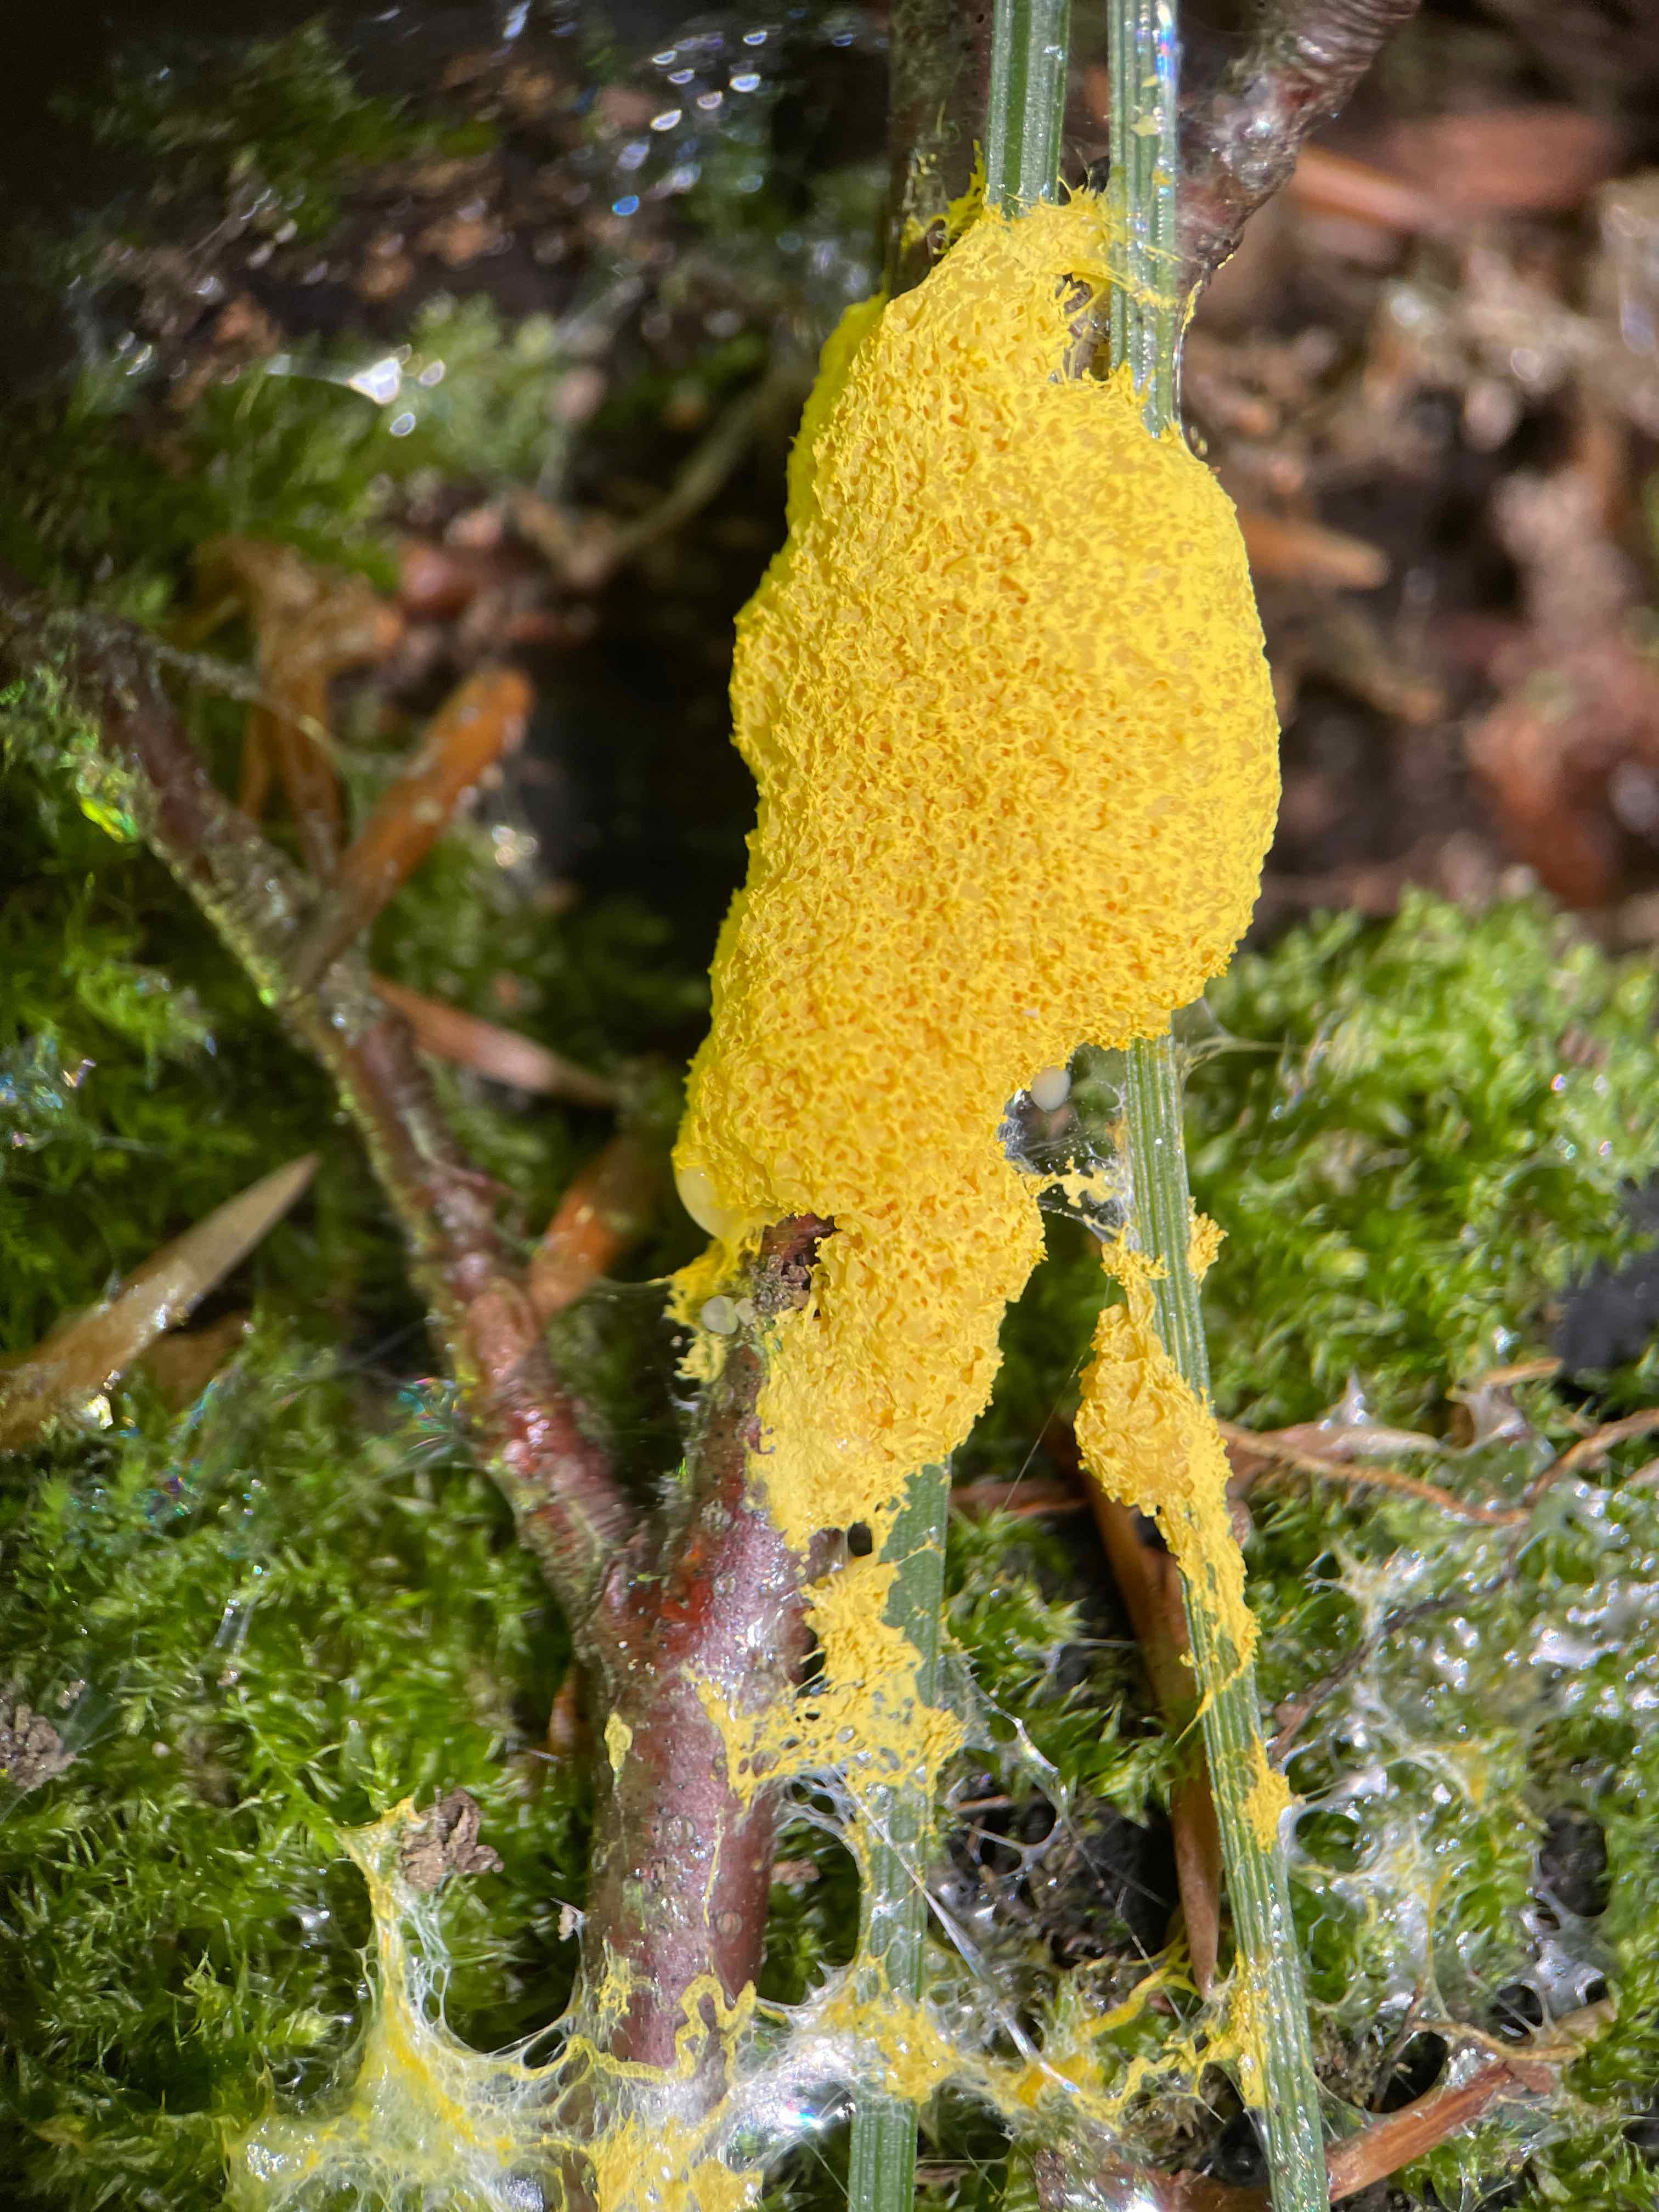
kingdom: Protozoa
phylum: Mycetozoa
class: Myxomycetes
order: Physarales
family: Physaraceae
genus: Fuligo
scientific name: Fuligo septica
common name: gul troldsmør
